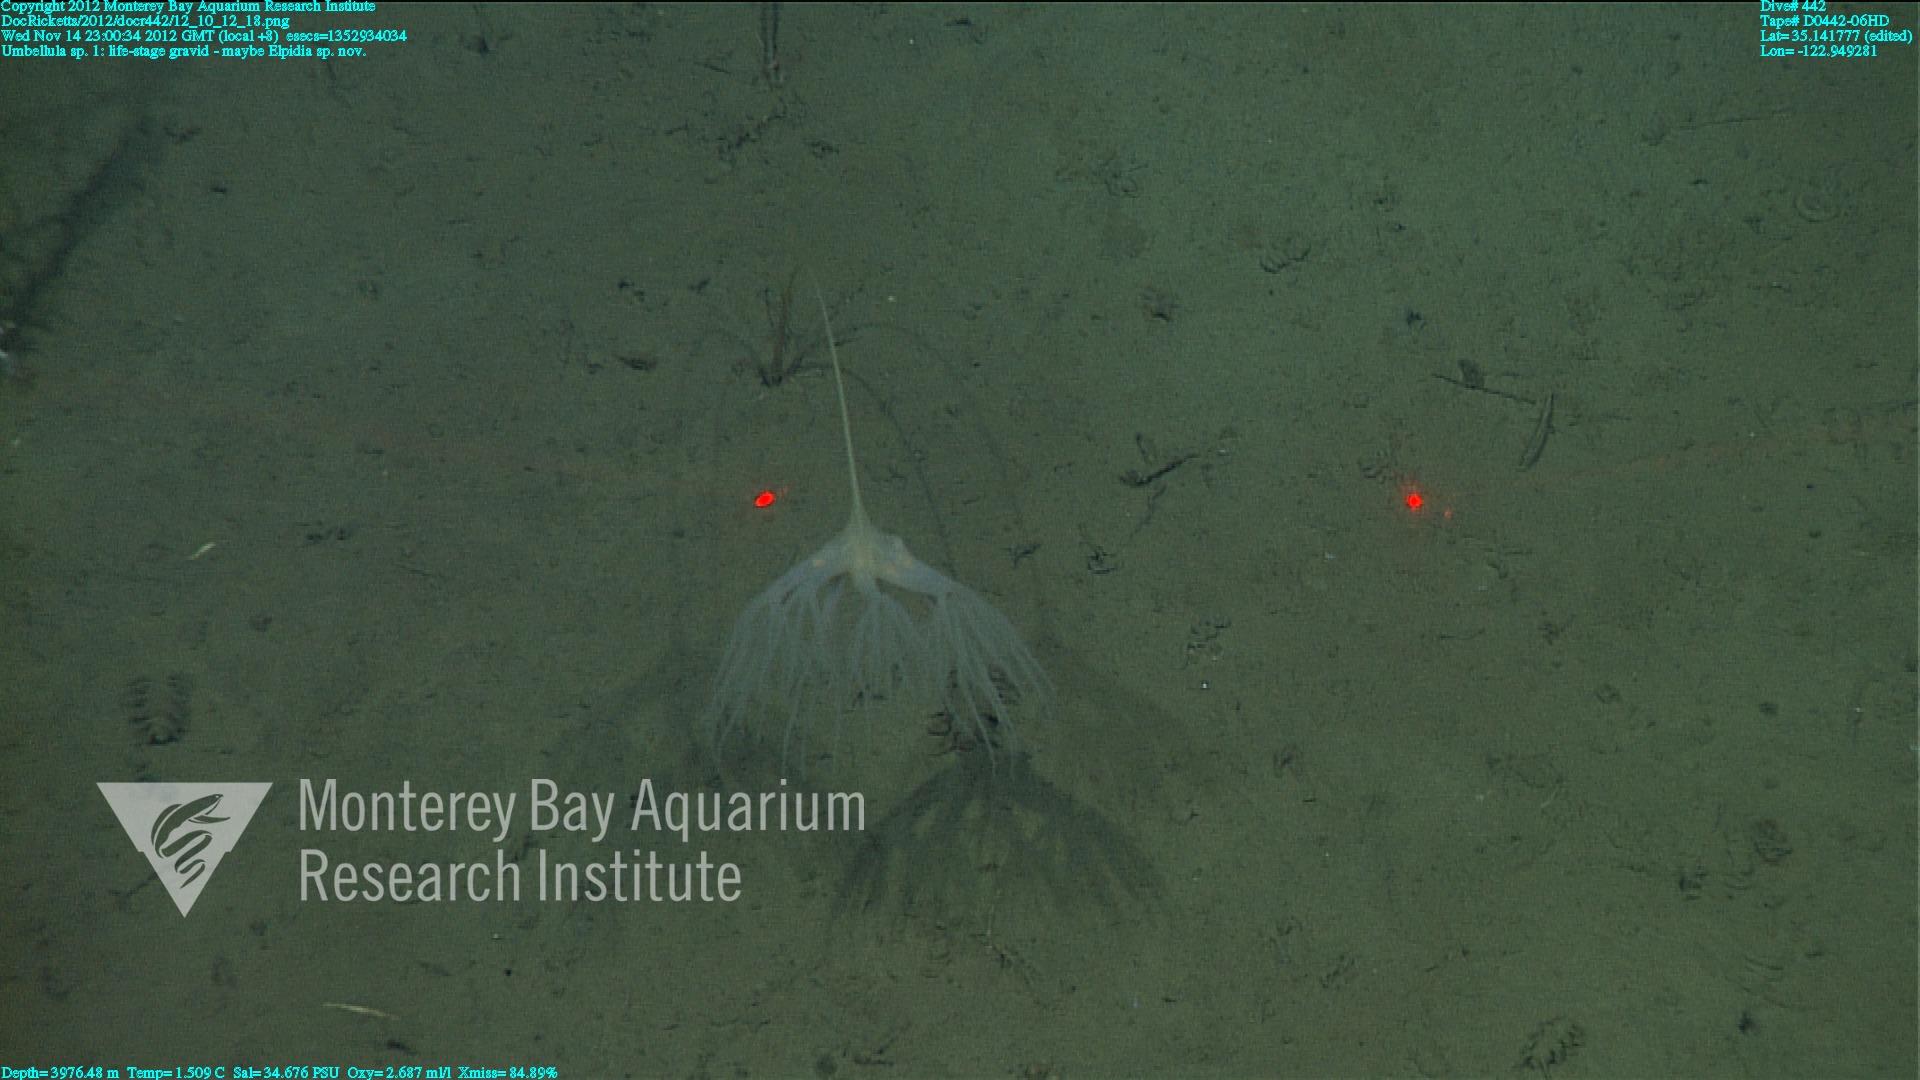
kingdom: Animalia
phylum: Cnidaria
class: Anthozoa
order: Scleralcyonacea
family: Umbellulidae
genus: Umbellula
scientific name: Umbellula
